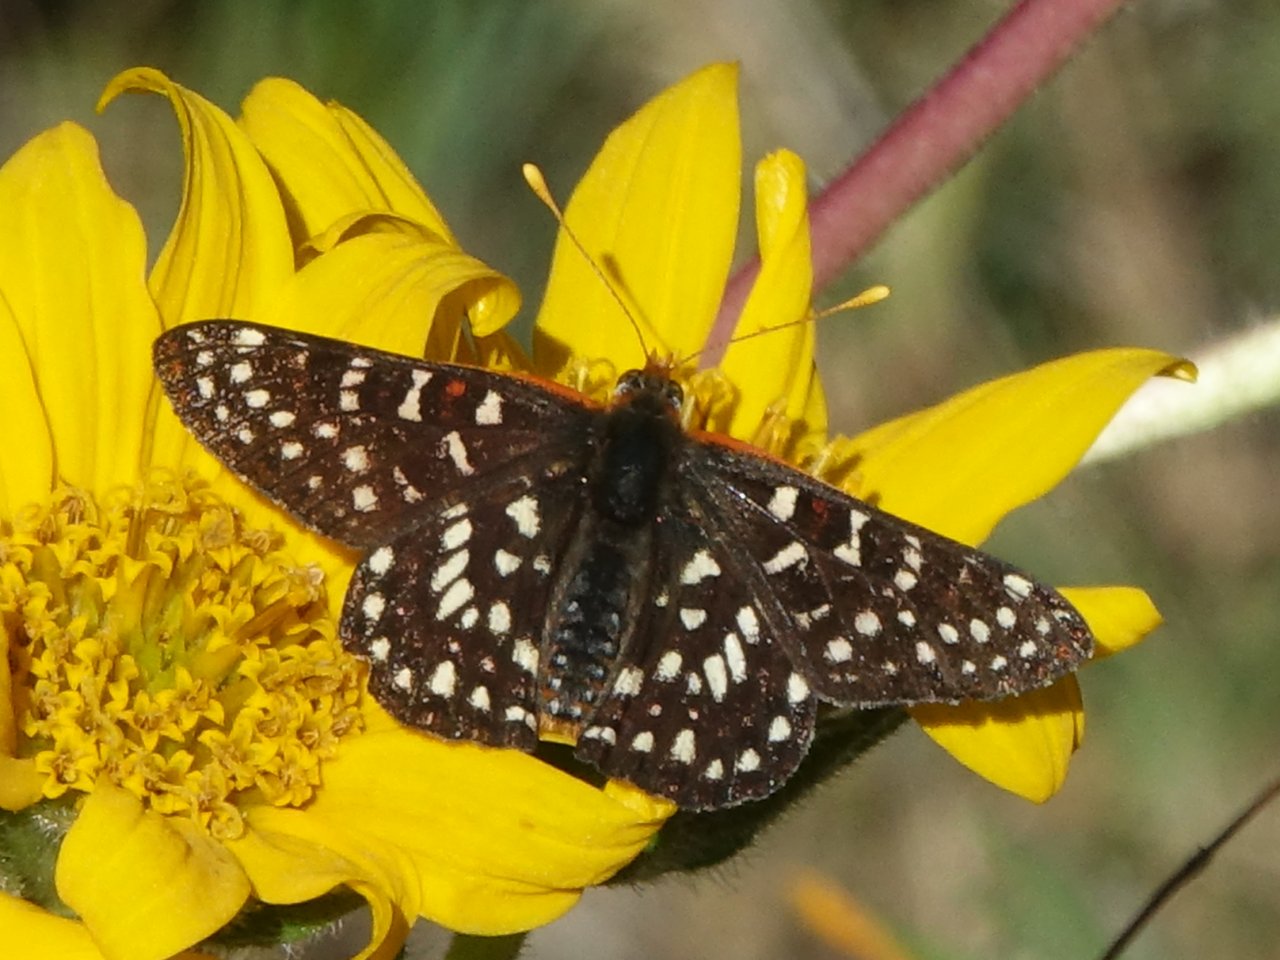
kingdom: Animalia
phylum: Arthropoda
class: Insecta
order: Lepidoptera
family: Nymphalidae
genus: Occidryas
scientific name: Occidryas chalcedona
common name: Chalcedon Checkerspot
